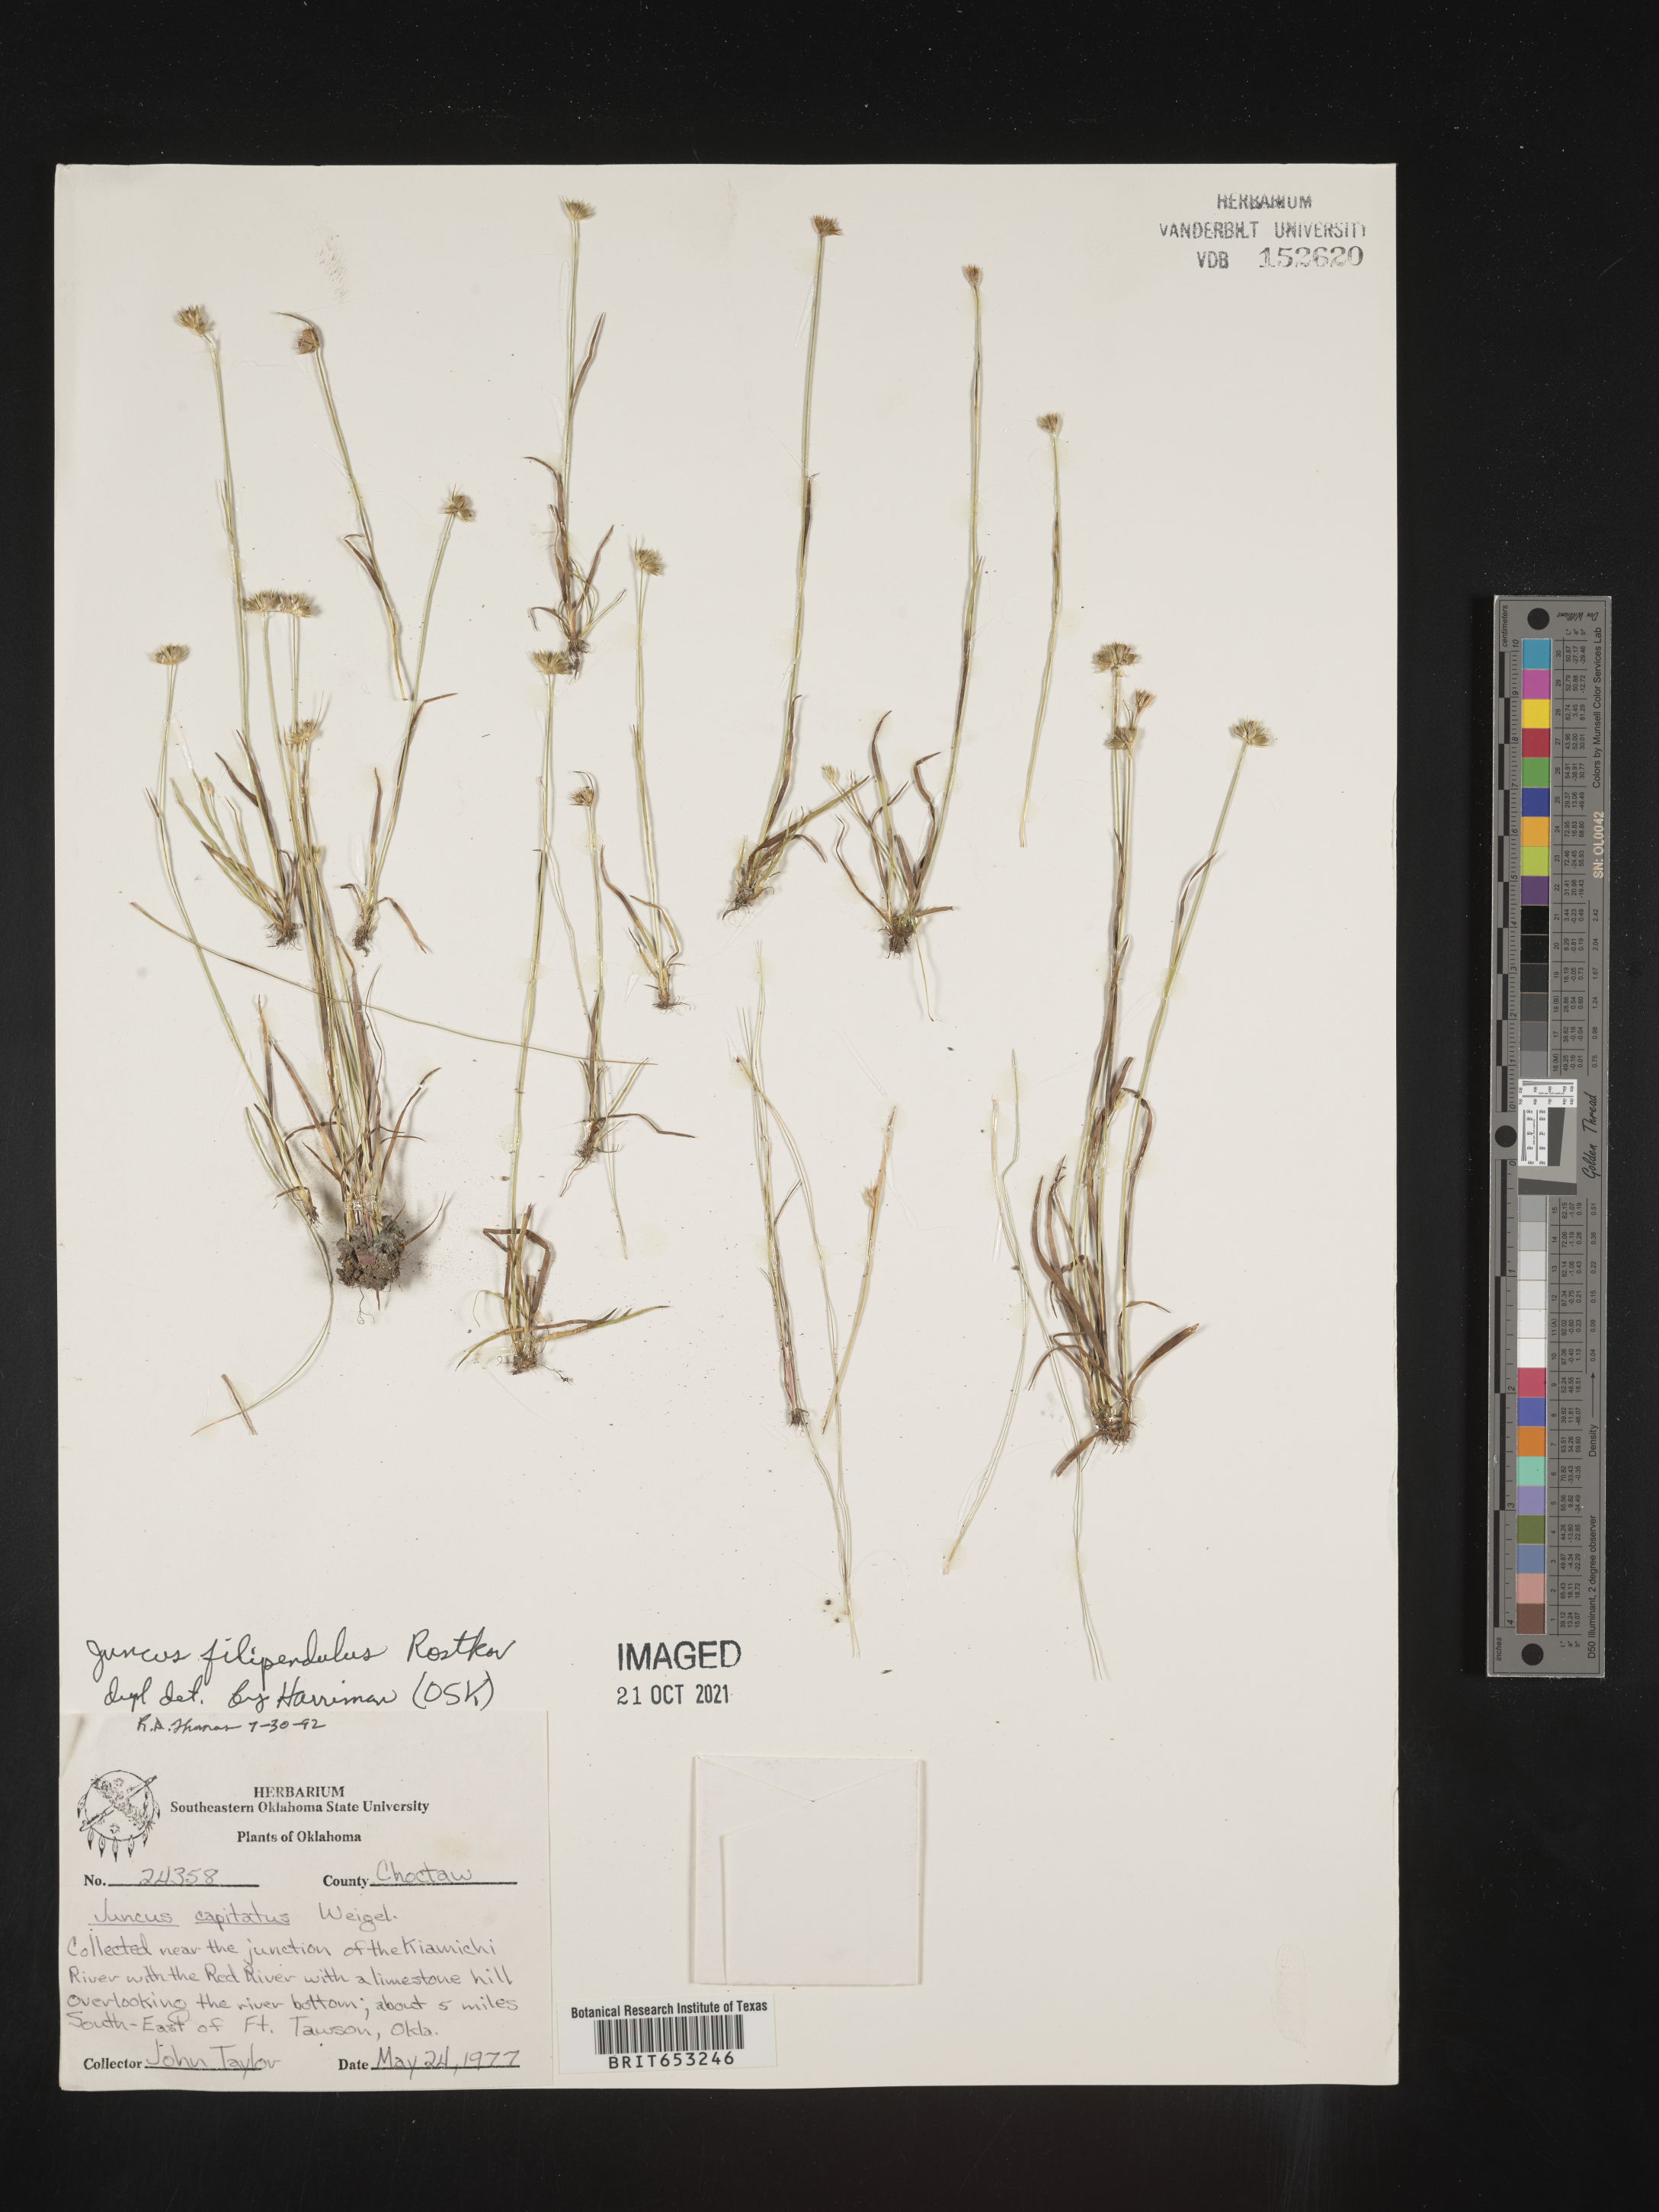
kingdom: Plantae
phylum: Tracheophyta
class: Liliopsida
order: Poales
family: Juncaceae
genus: Juncus
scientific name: Juncus filipendulus
